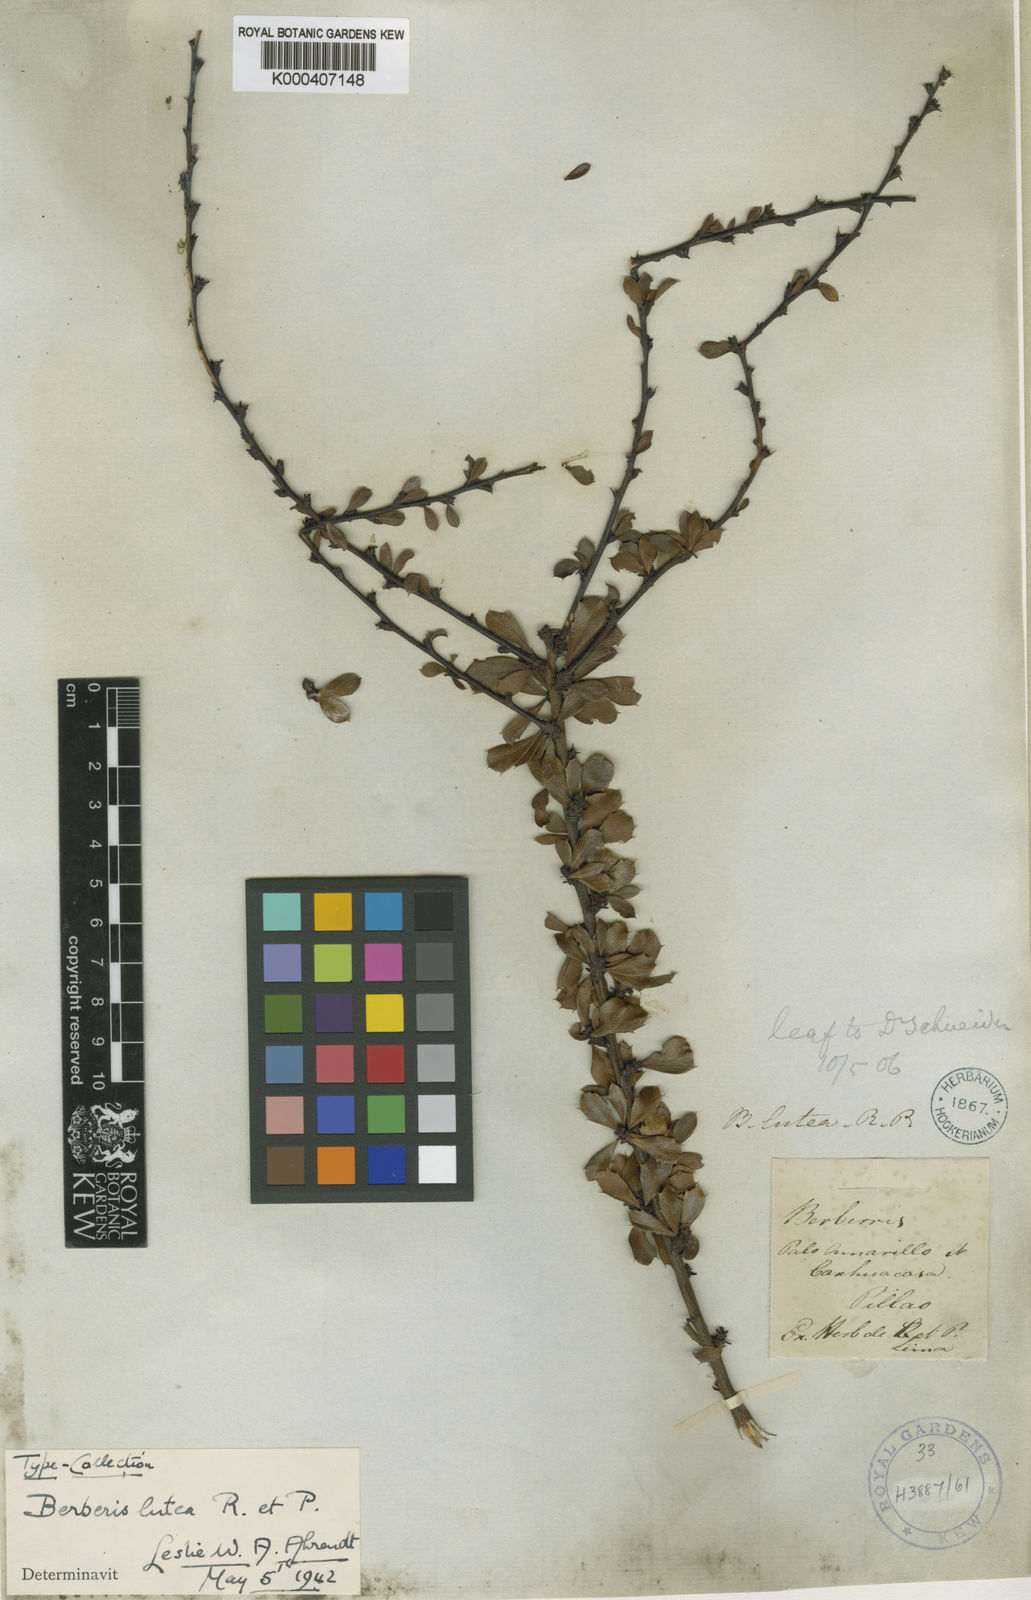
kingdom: Plantae
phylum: Tracheophyta
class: Magnoliopsida
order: Ranunculales
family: Berberidaceae
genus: Berberis
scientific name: Berberis lutea
